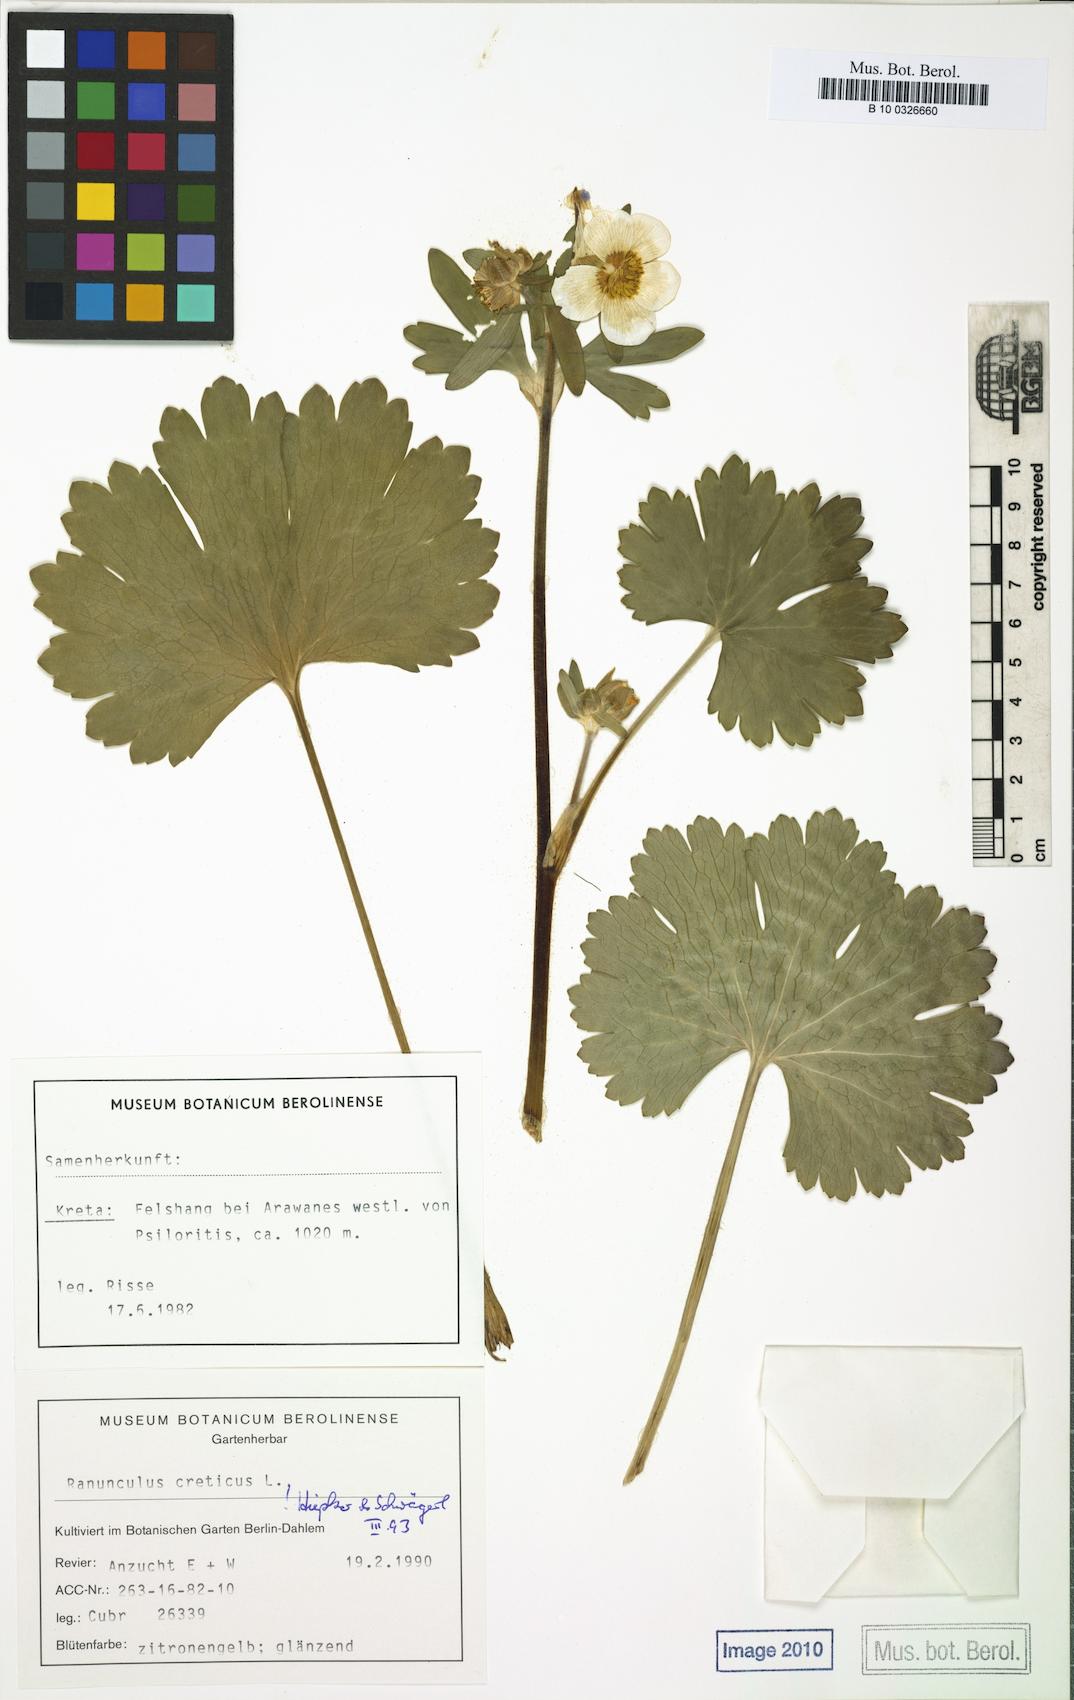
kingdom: Plantae
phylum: Tracheophyta
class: Magnoliopsida
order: Ranunculales
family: Ranunculaceae
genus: Ranunculus
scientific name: Ranunculus creticus
